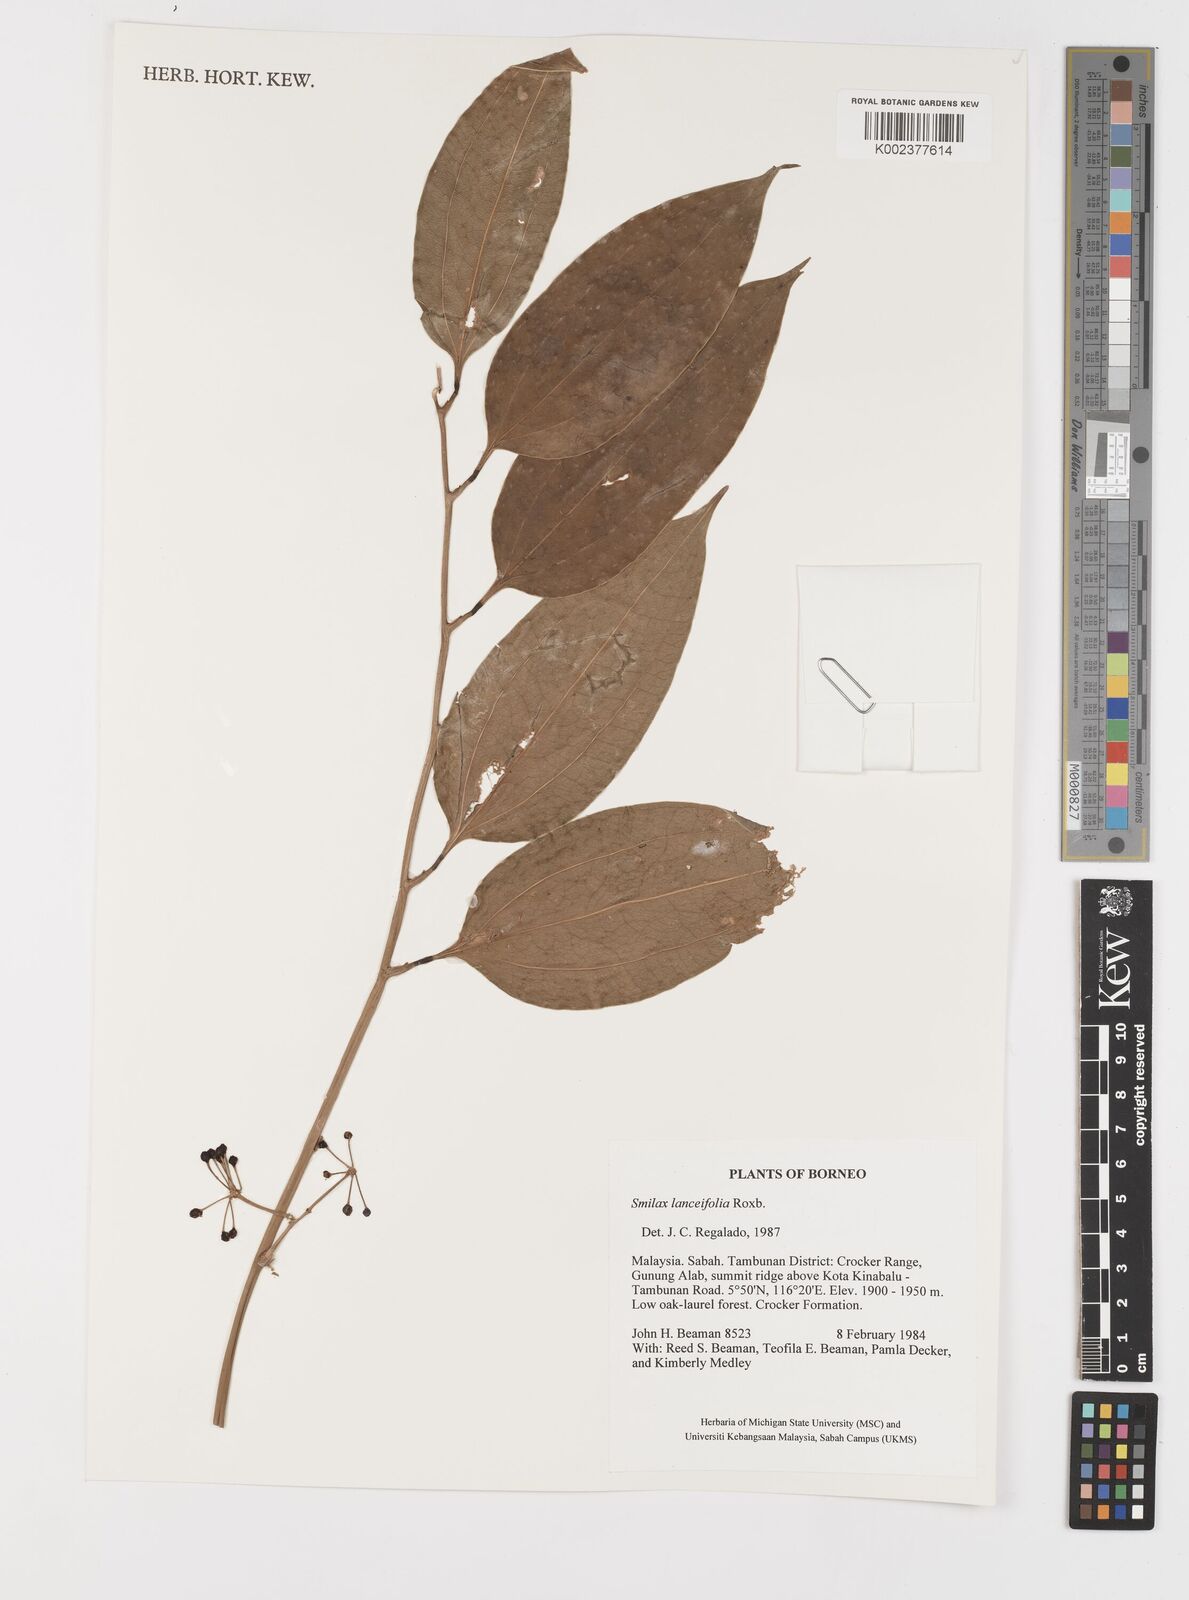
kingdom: Plantae
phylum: Tracheophyta
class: Liliopsida
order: Liliales
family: Smilacaceae
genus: Smilax
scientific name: Smilax lanceifolia
